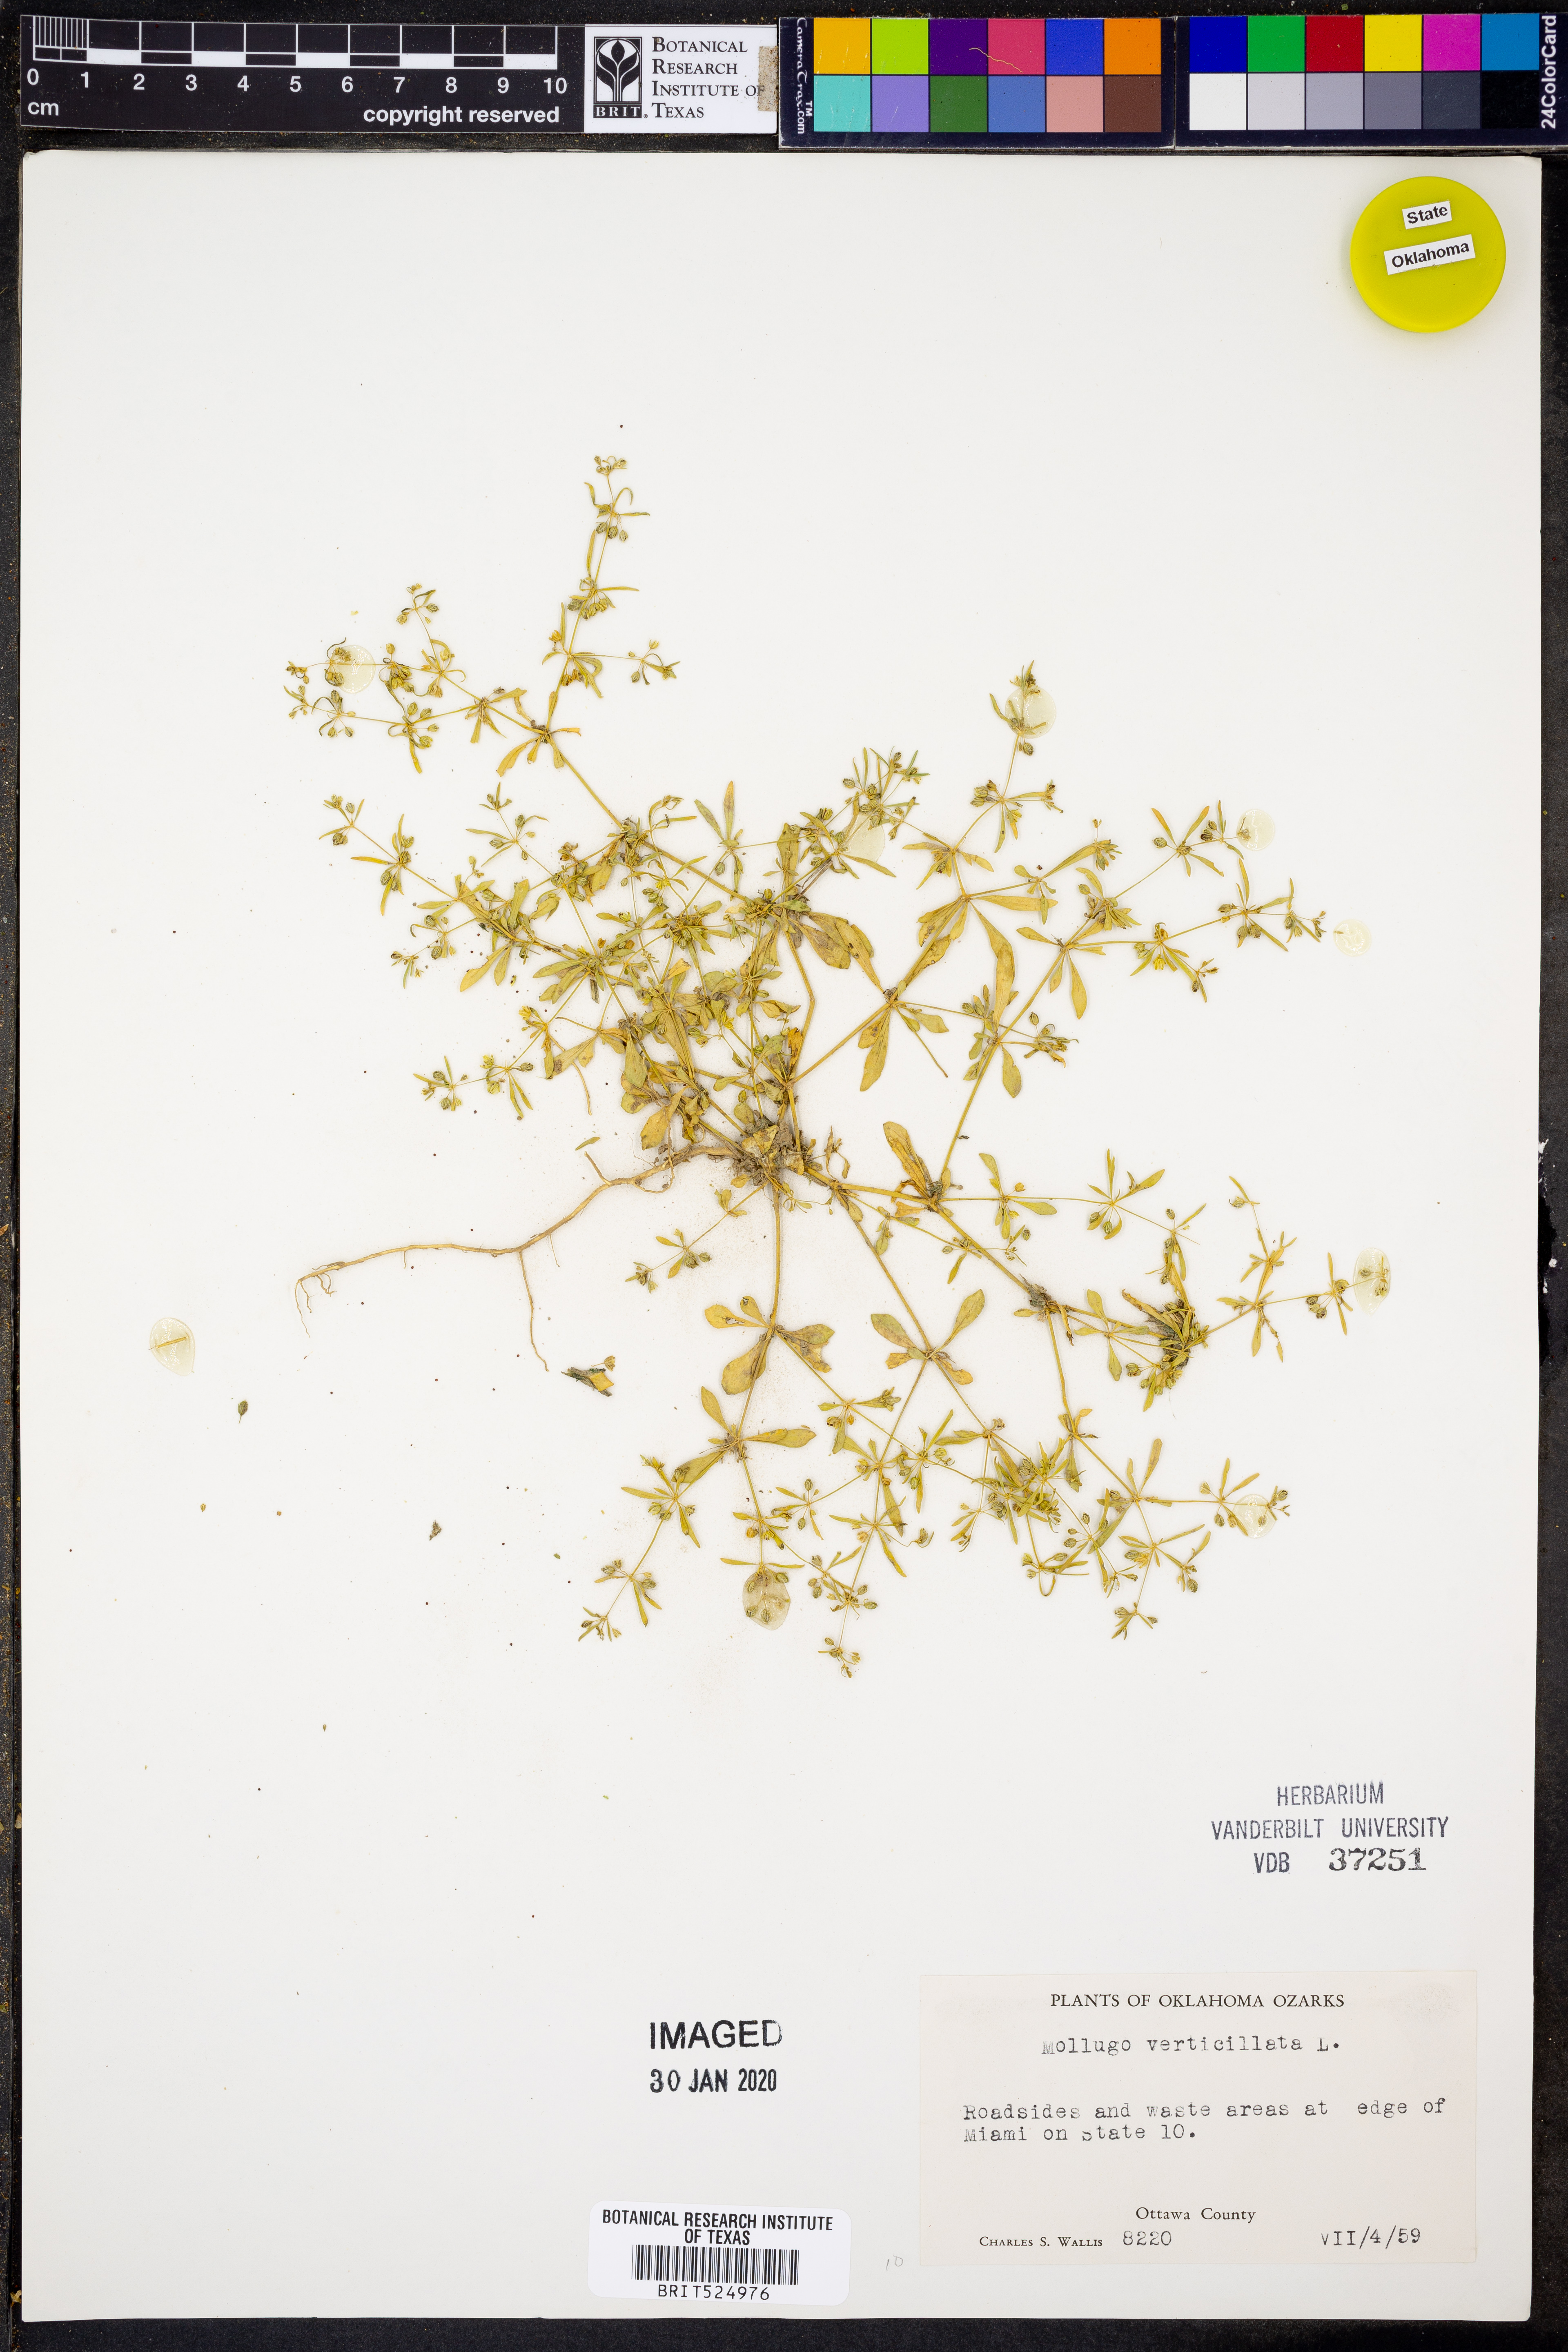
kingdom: Plantae
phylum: Tracheophyta
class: Magnoliopsida
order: Caryophyllales
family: Molluginaceae
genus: Mollugo
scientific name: Mollugo verticillata
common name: Green carpetweed
